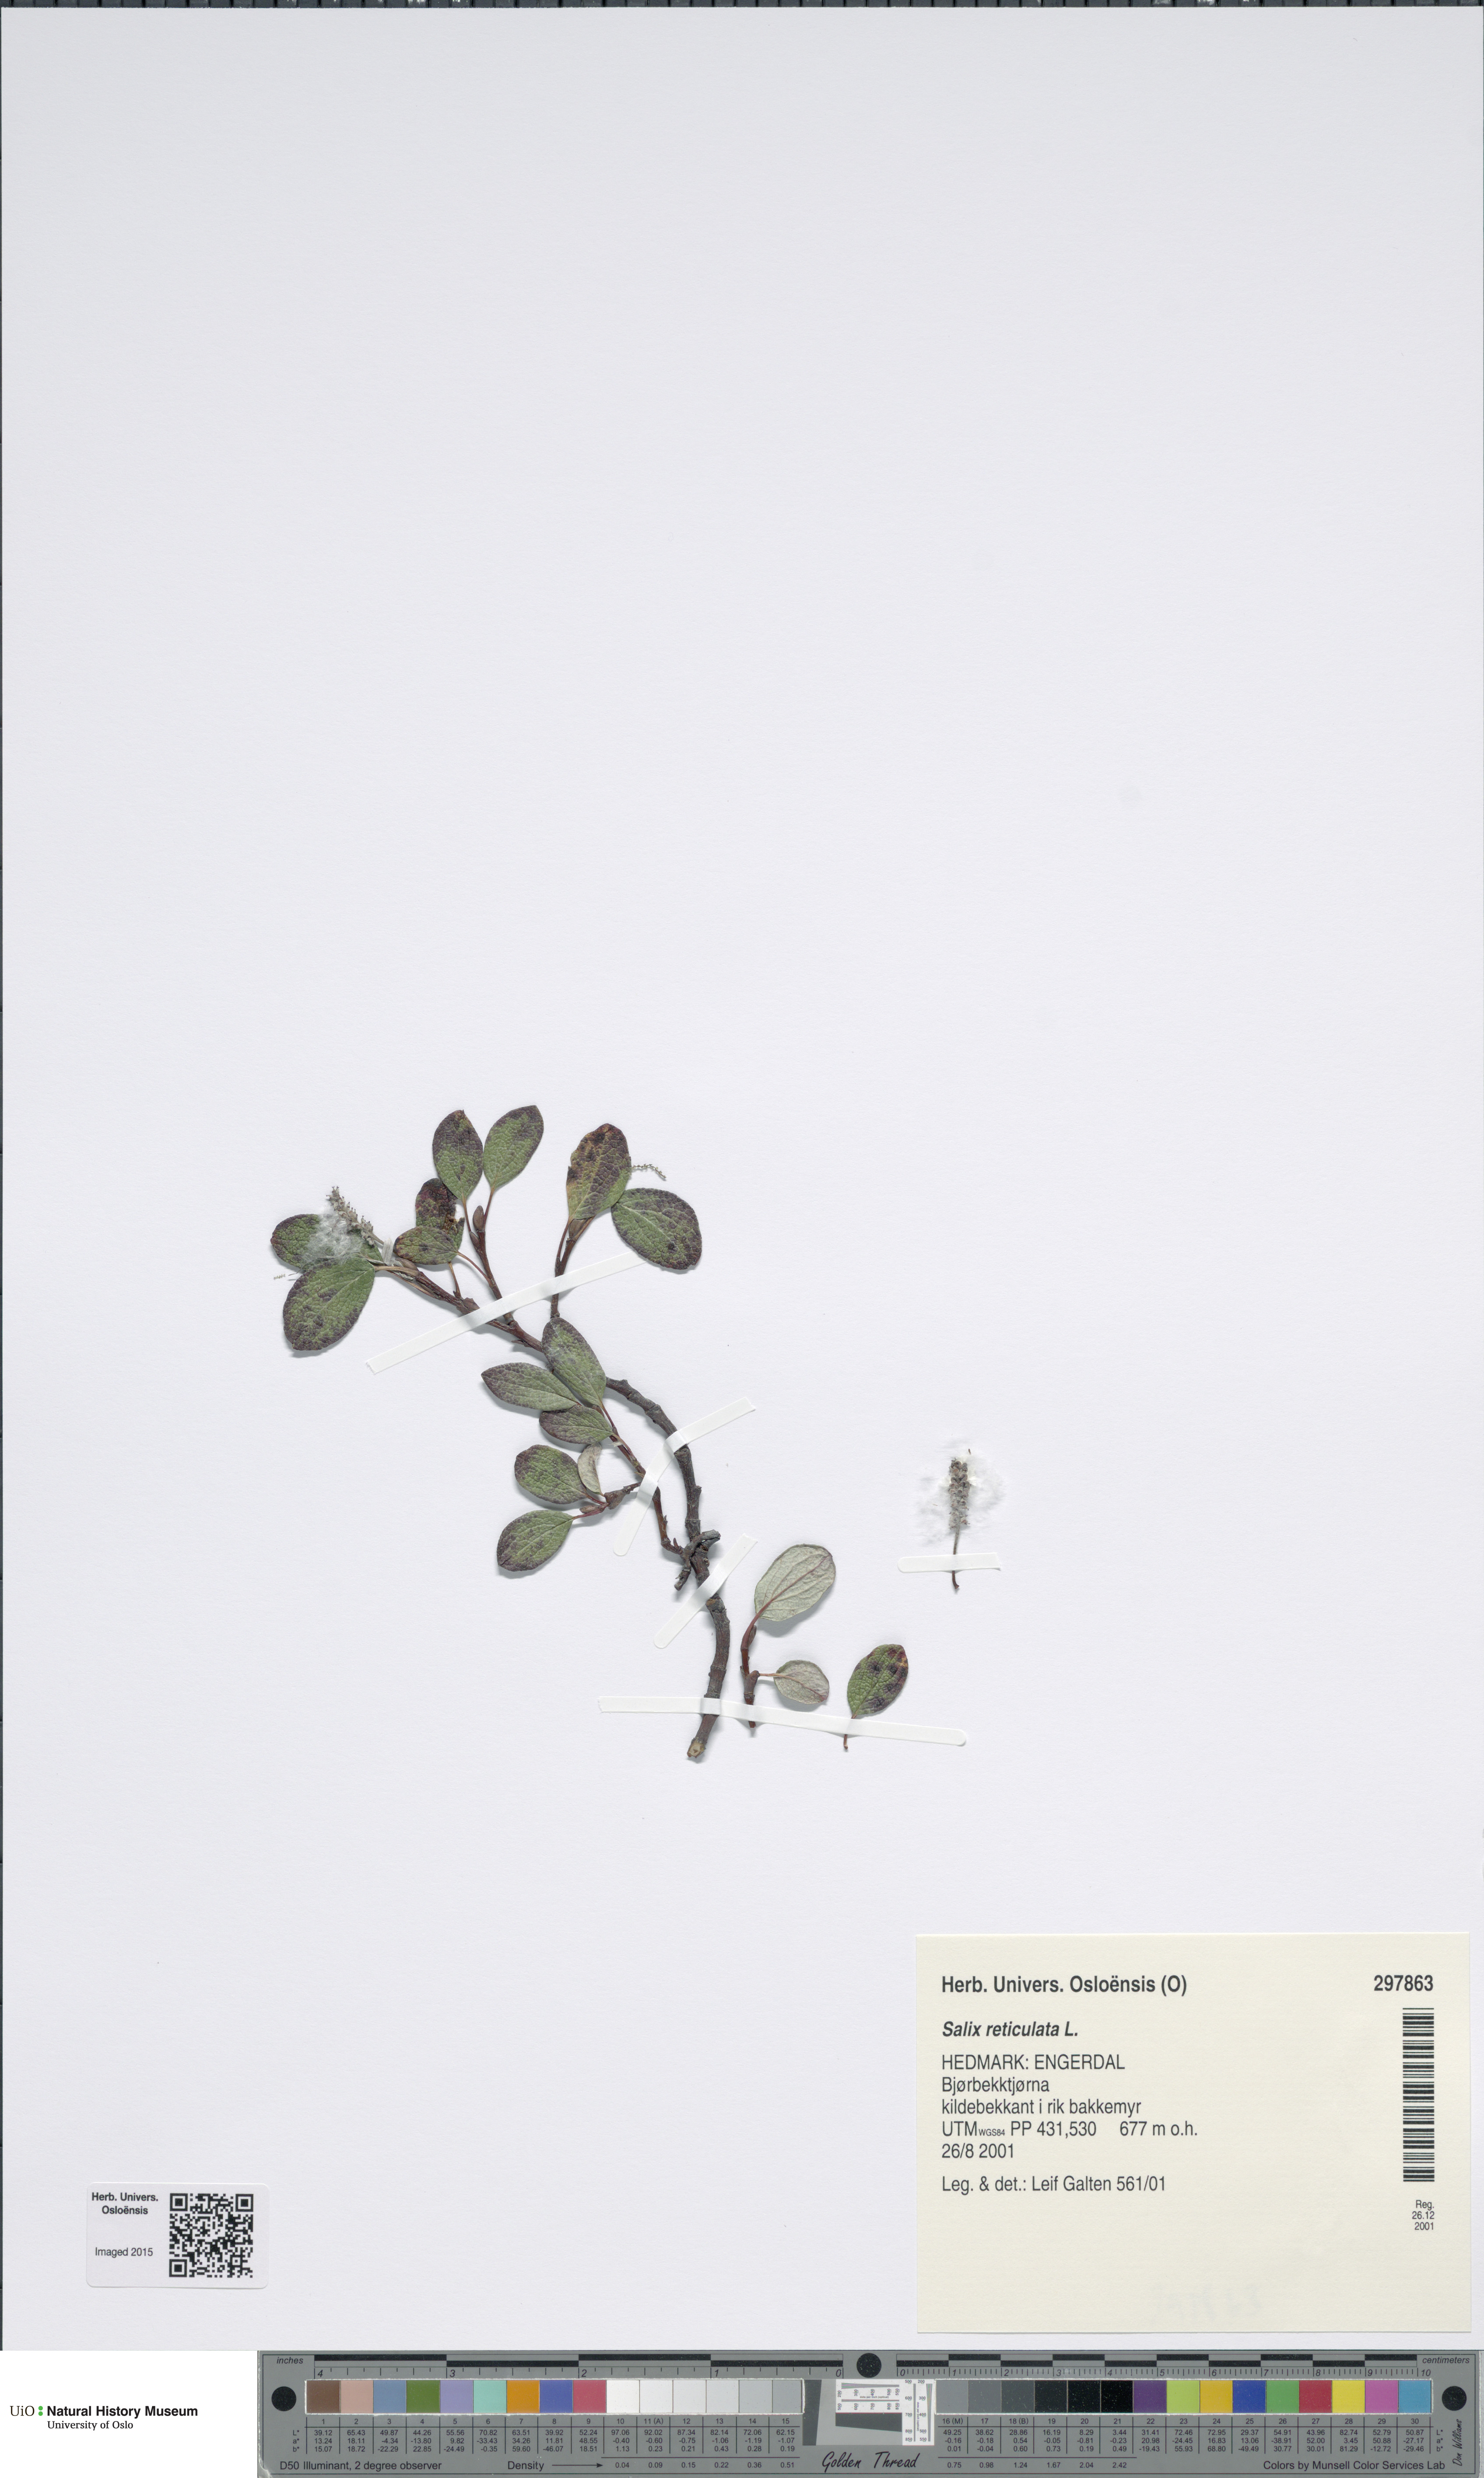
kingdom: Plantae
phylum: Tracheophyta
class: Magnoliopsida
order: Malpighiales
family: Salicaceae
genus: Salix
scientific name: Salix reticulata
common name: Net-leaved willow
